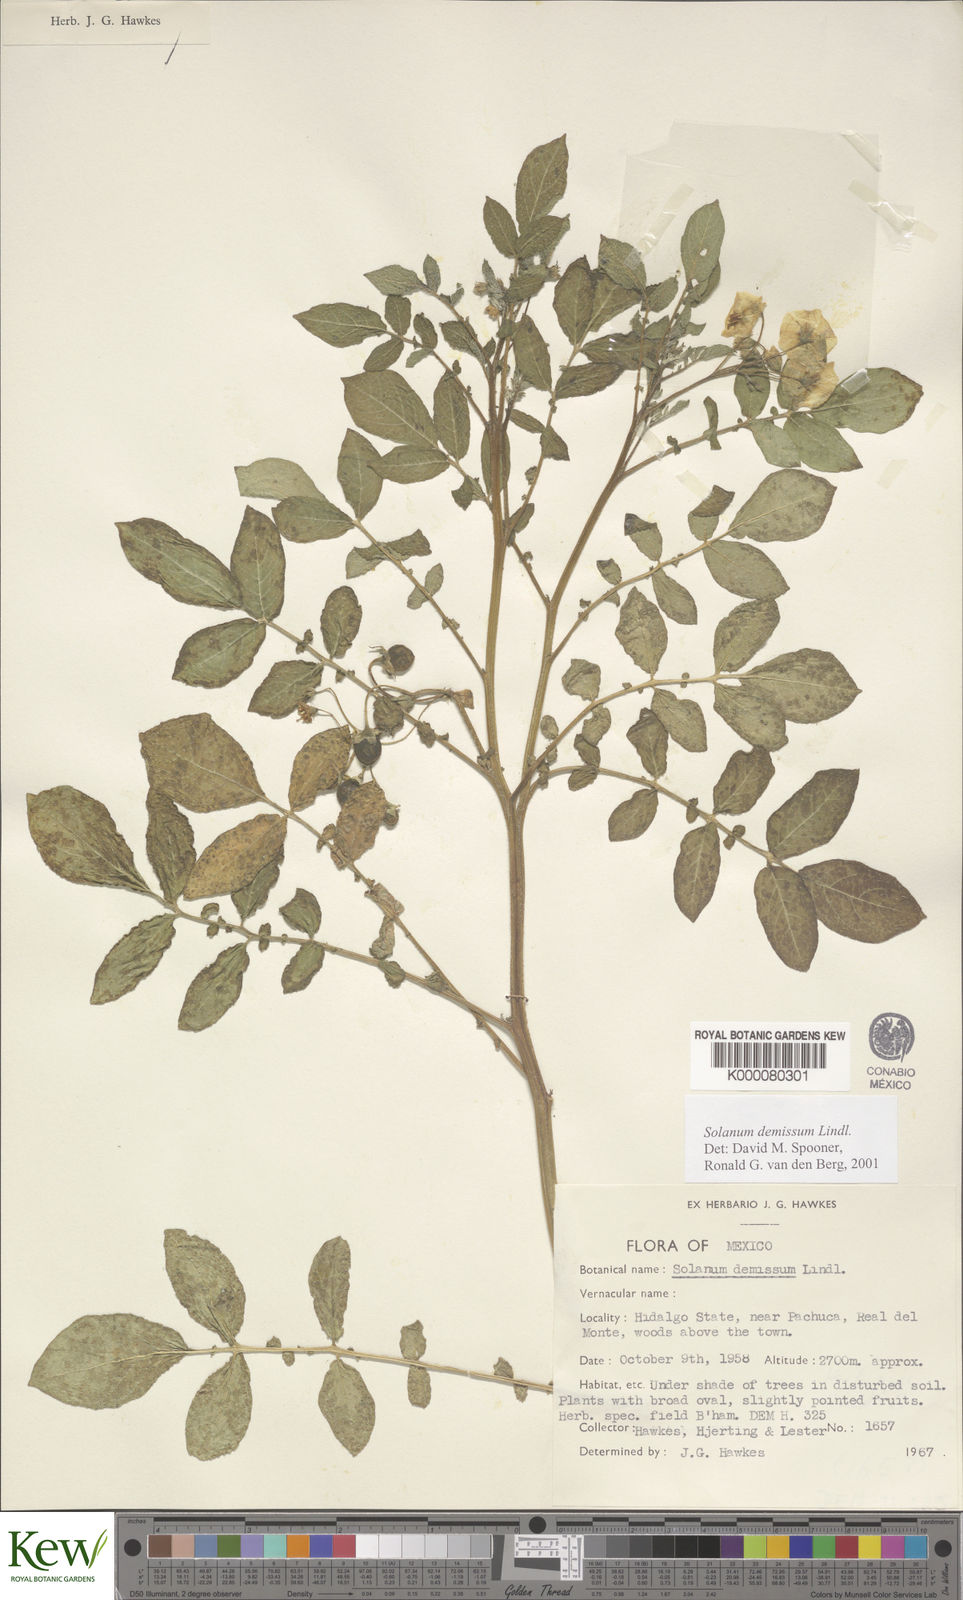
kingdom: Plantae
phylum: Tracheophyta
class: Magnoliopsida
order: Solanales
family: Solanaceae
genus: Solanum
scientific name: Solanum demissum
